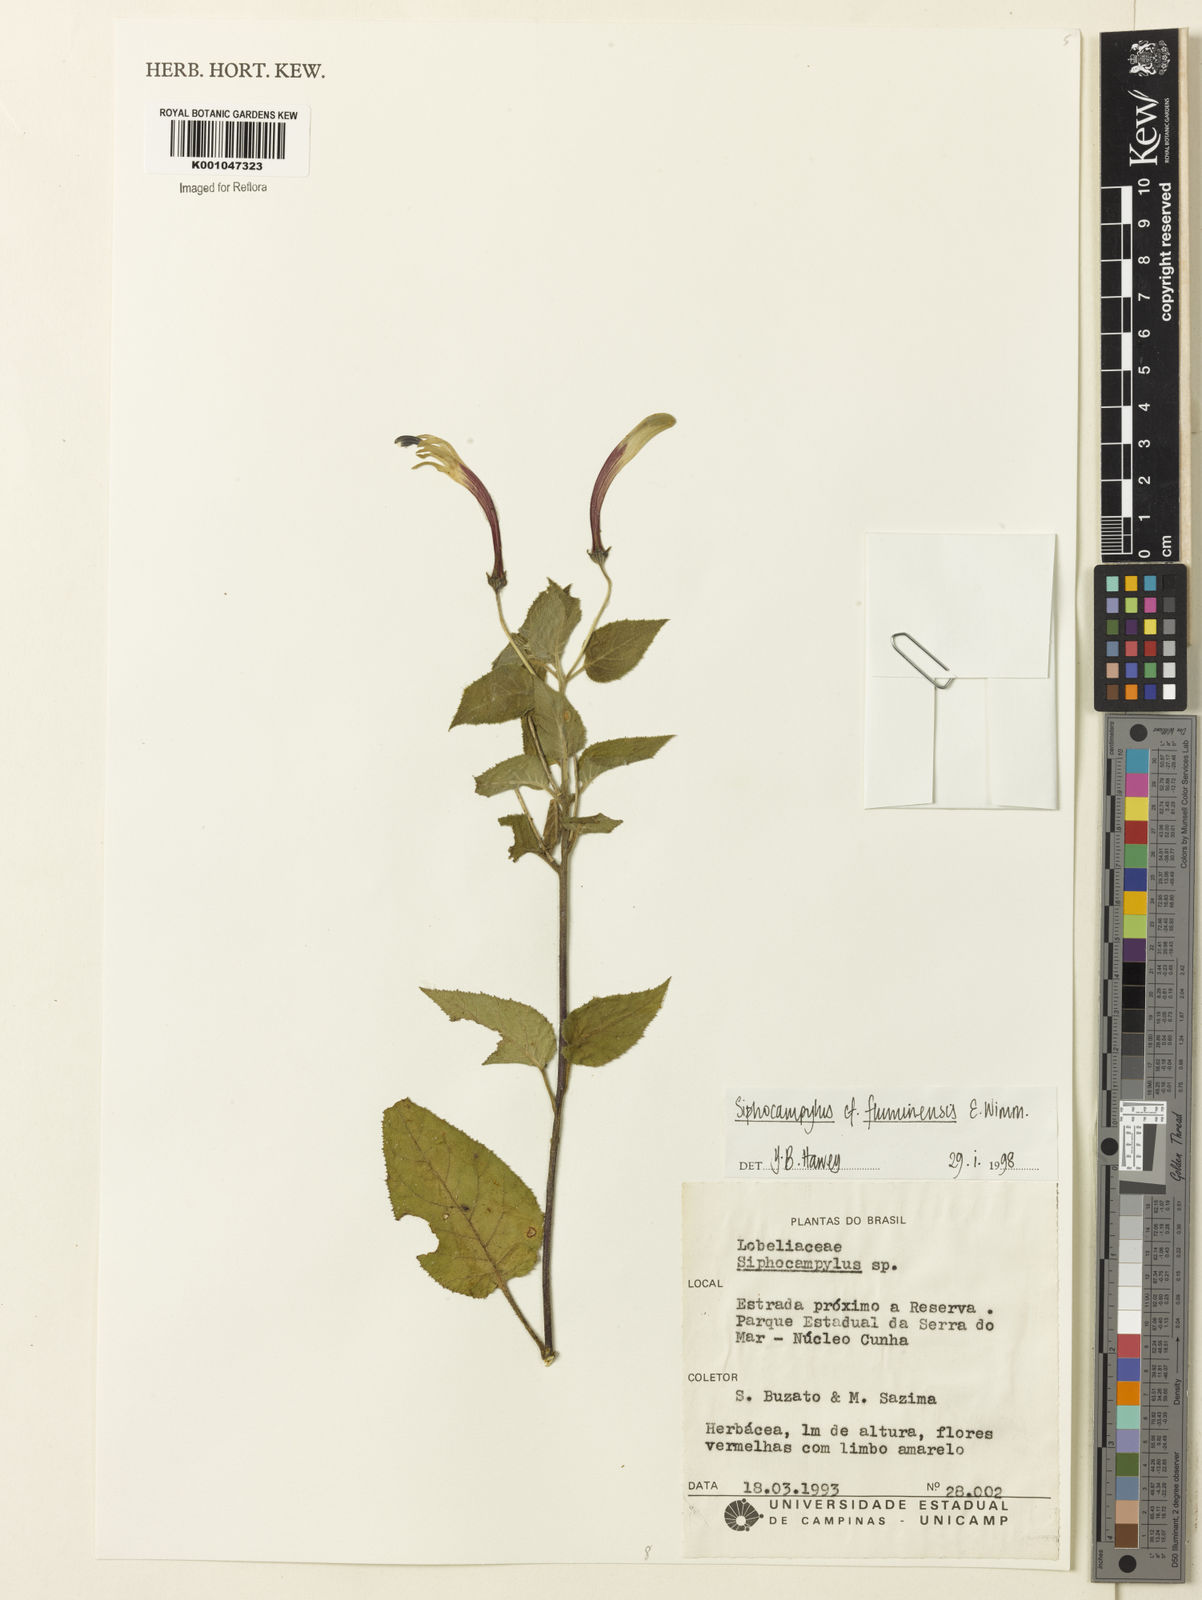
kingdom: Plantae
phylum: Tracheophyta
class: Magnoliopsida
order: Asterales
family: Campanulaceae
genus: Siphocampylus
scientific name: Siphocampylus fluminensis
